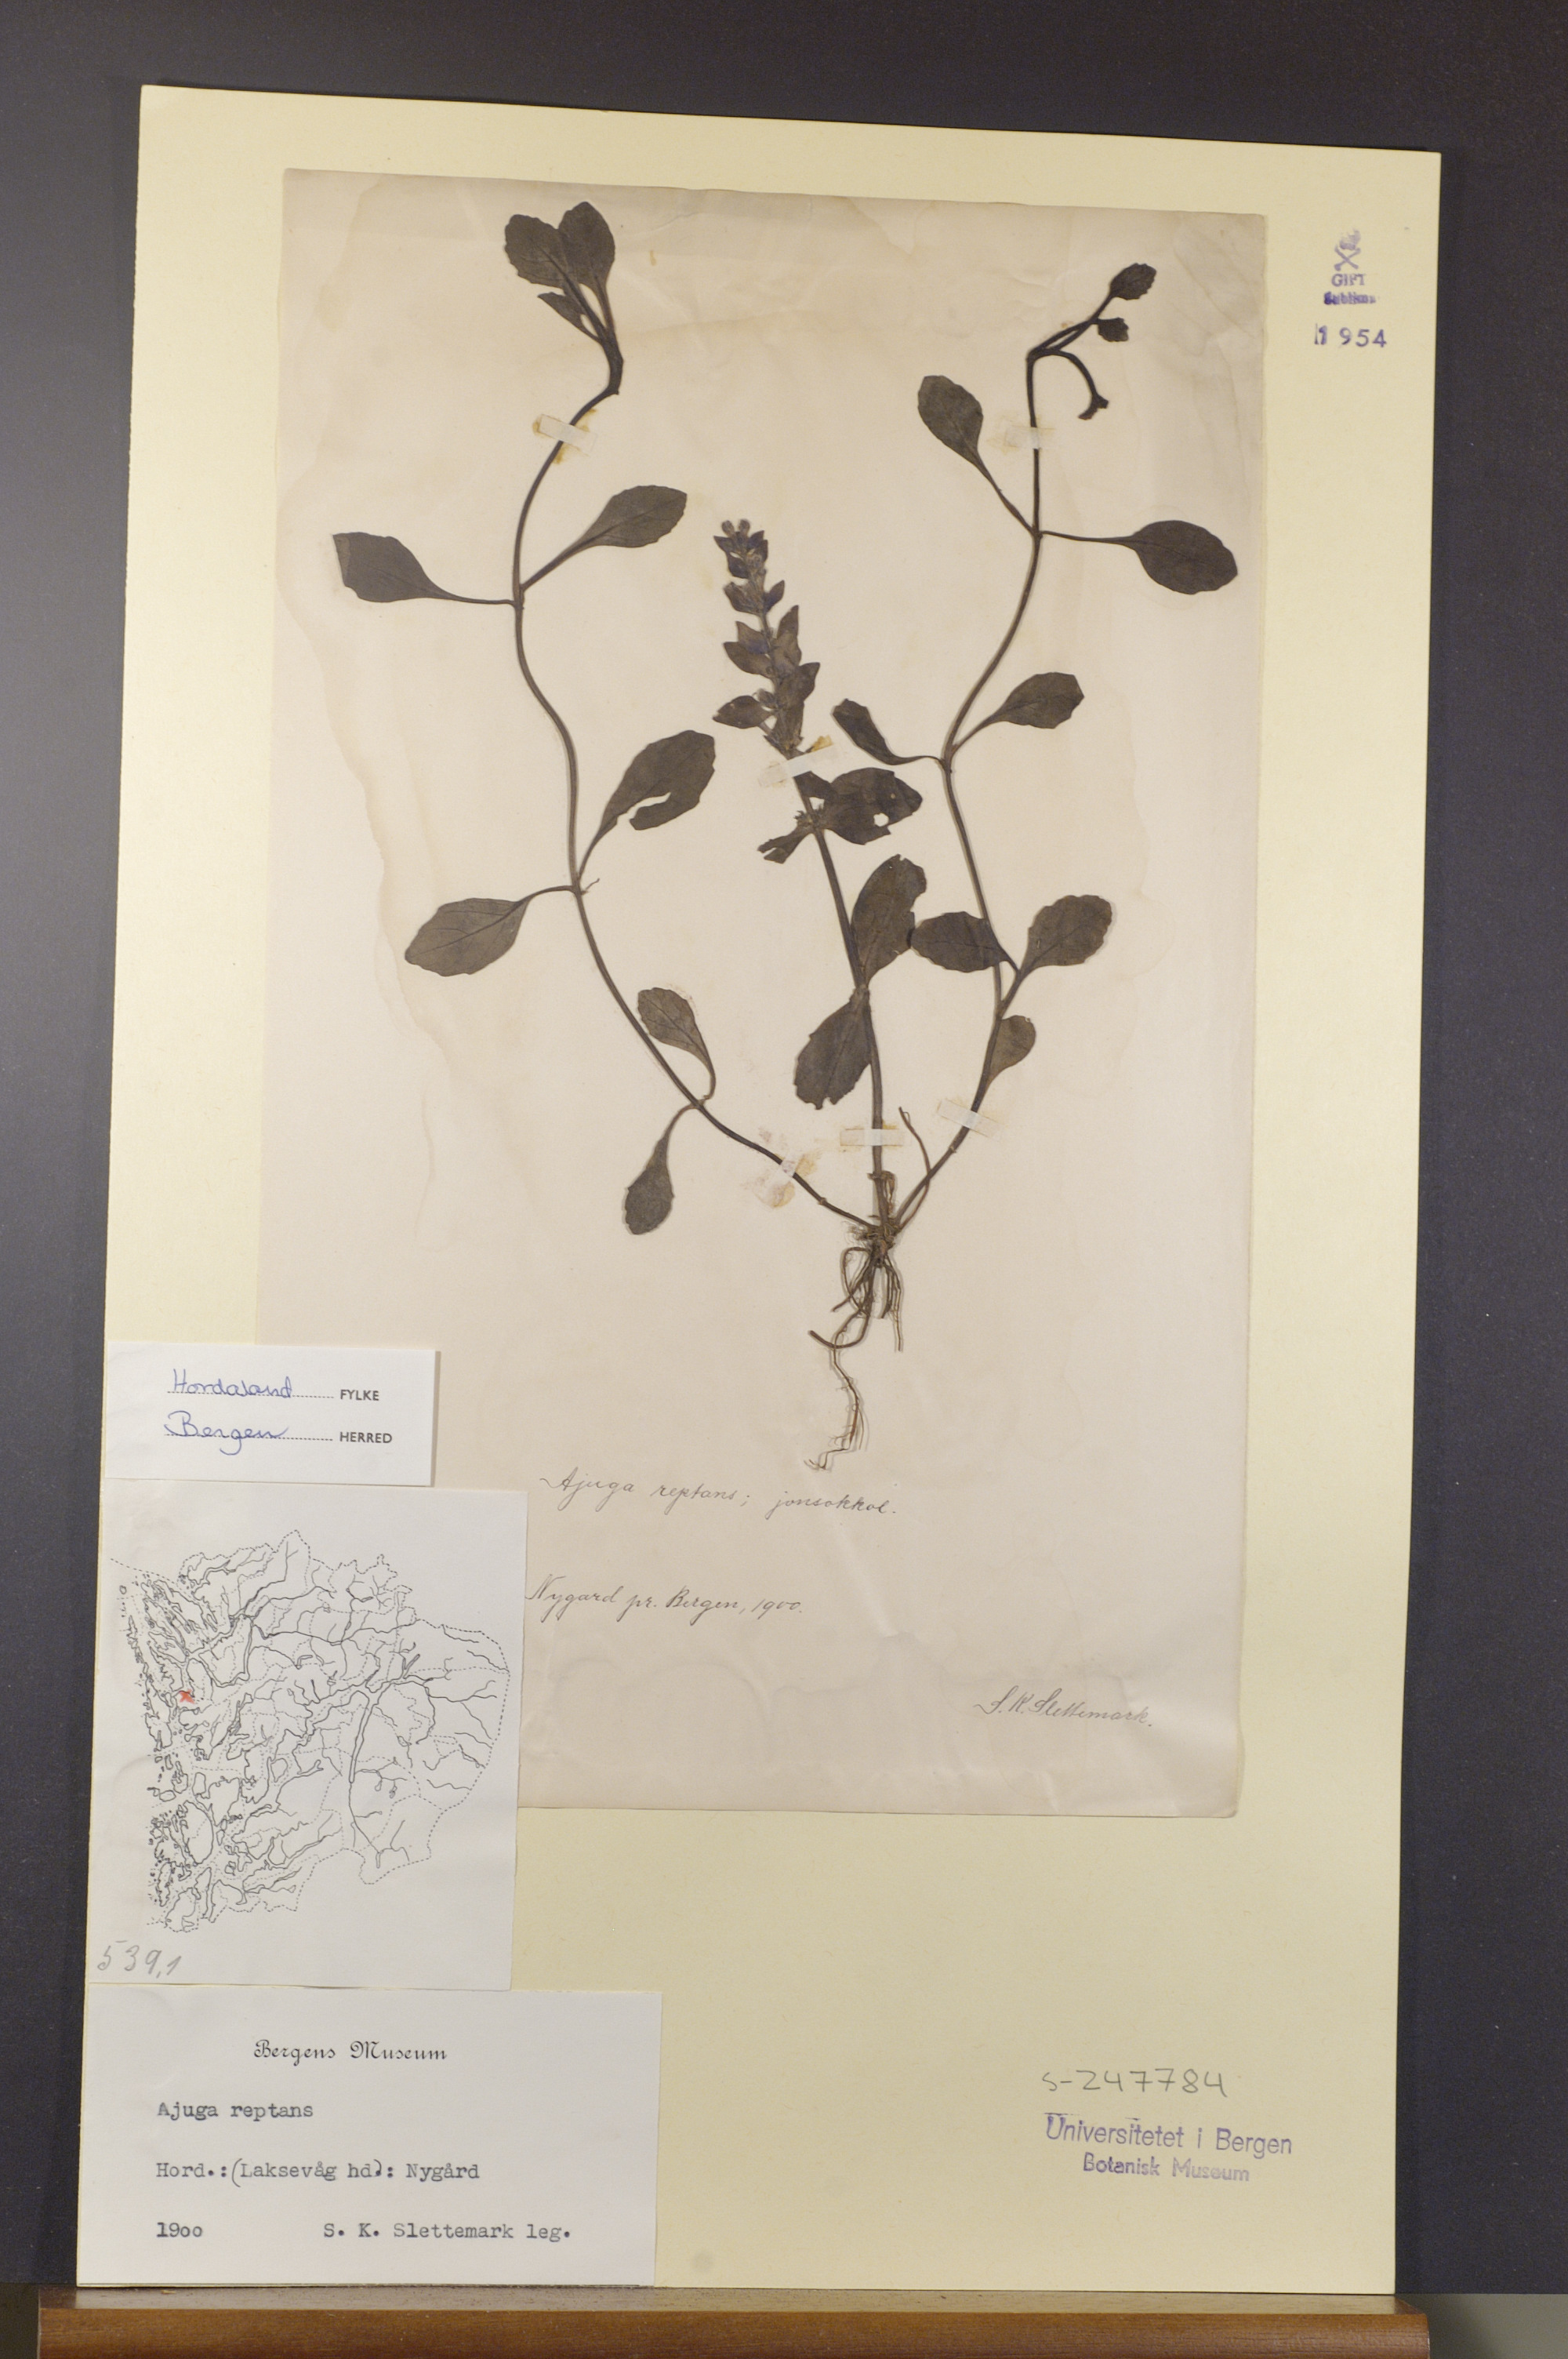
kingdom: Plantae
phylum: Tracheophyta
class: Magnoliopsida
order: Lamiales
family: Lamiaceae
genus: Ajuga
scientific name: Ajuga reptans
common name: Bugle
